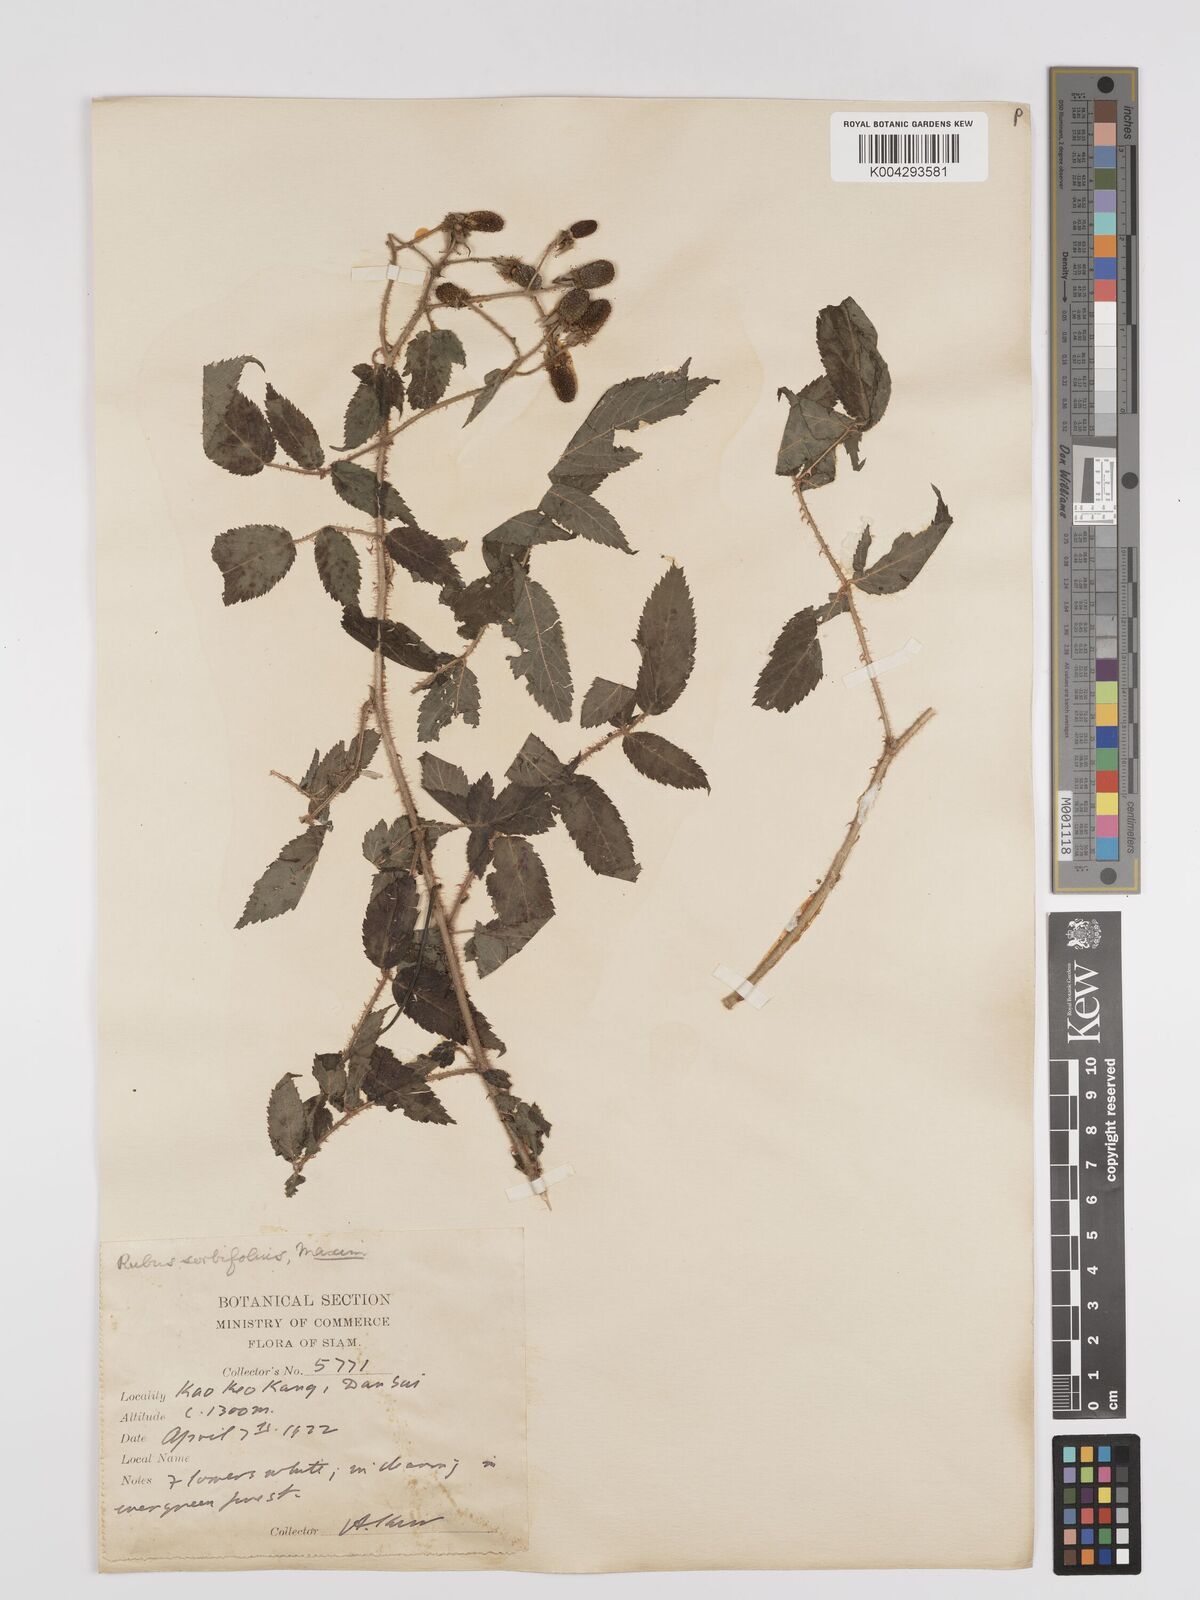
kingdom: Plantae
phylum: Tracheophyta
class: Magnoliopsida
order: Rosales
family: Rosaceae
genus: Rubus
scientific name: Rubus sumatranus
